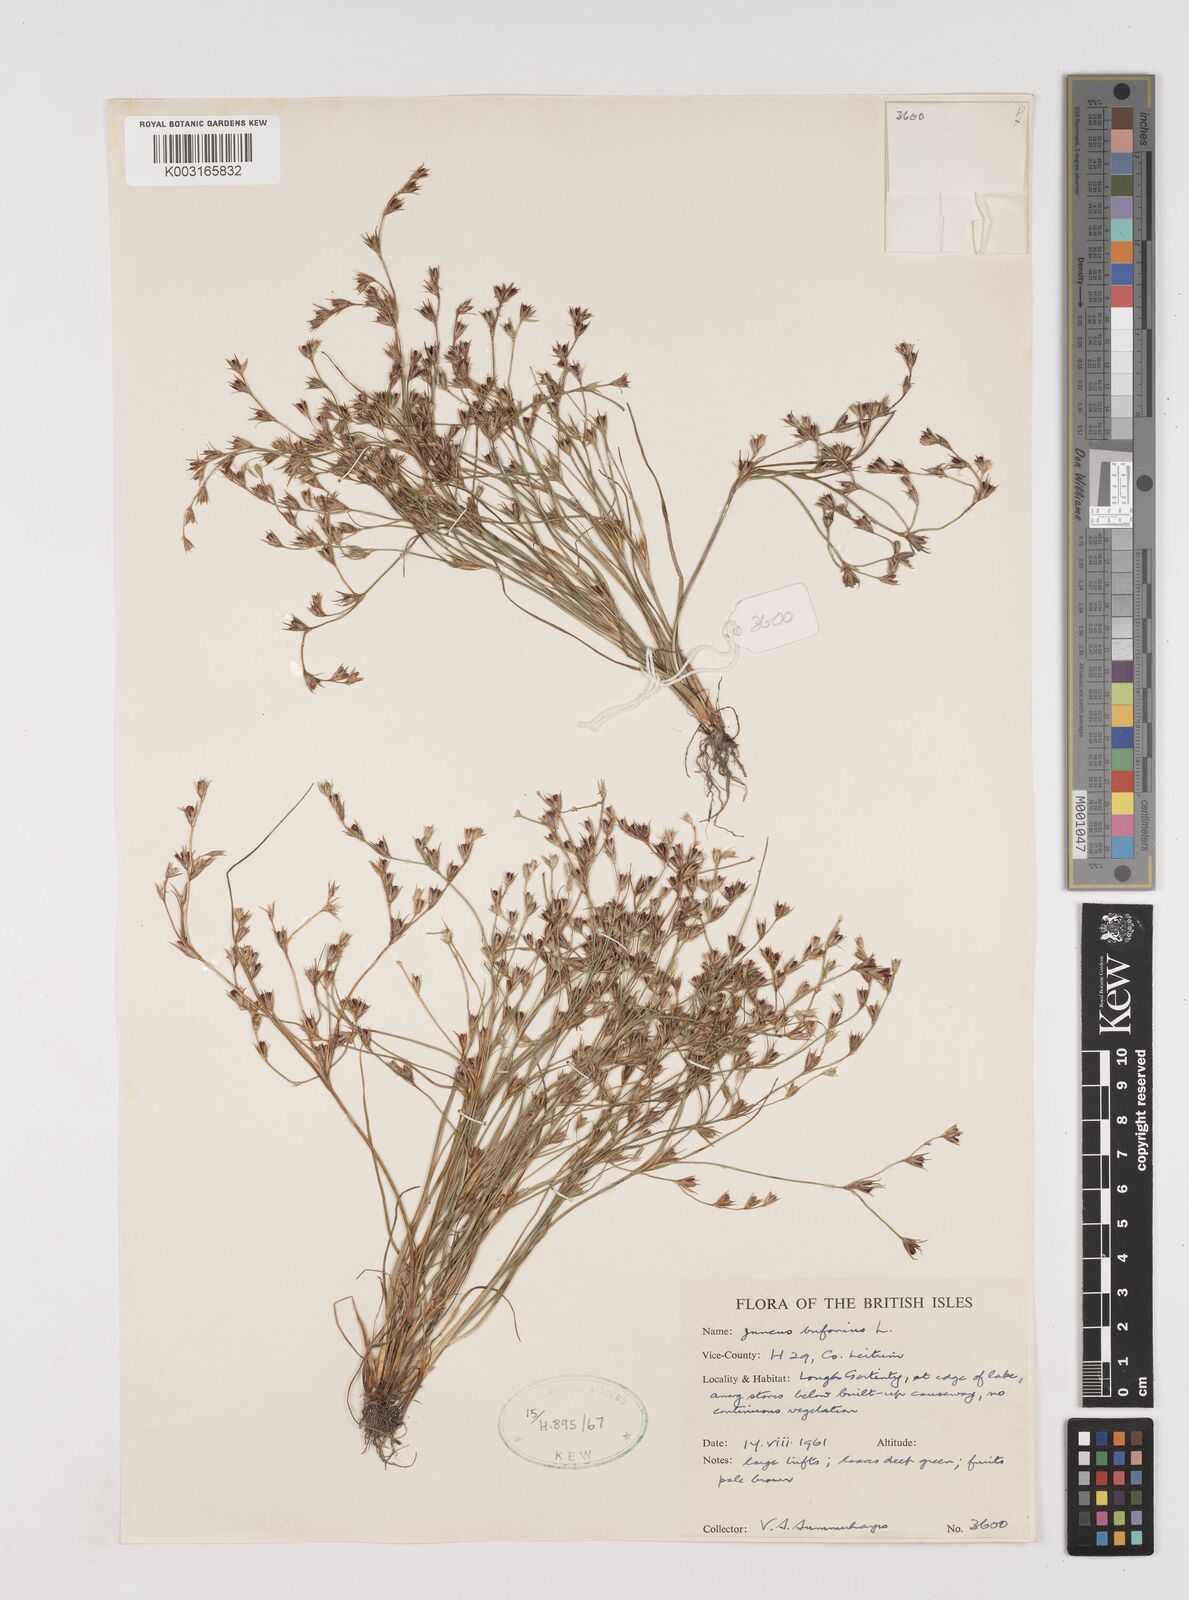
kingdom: Plantae
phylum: Tracheophyta
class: Liliopsida
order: Poales
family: Juncaceae
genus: Juncus
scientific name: Juncus bufonius
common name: Toad rush
